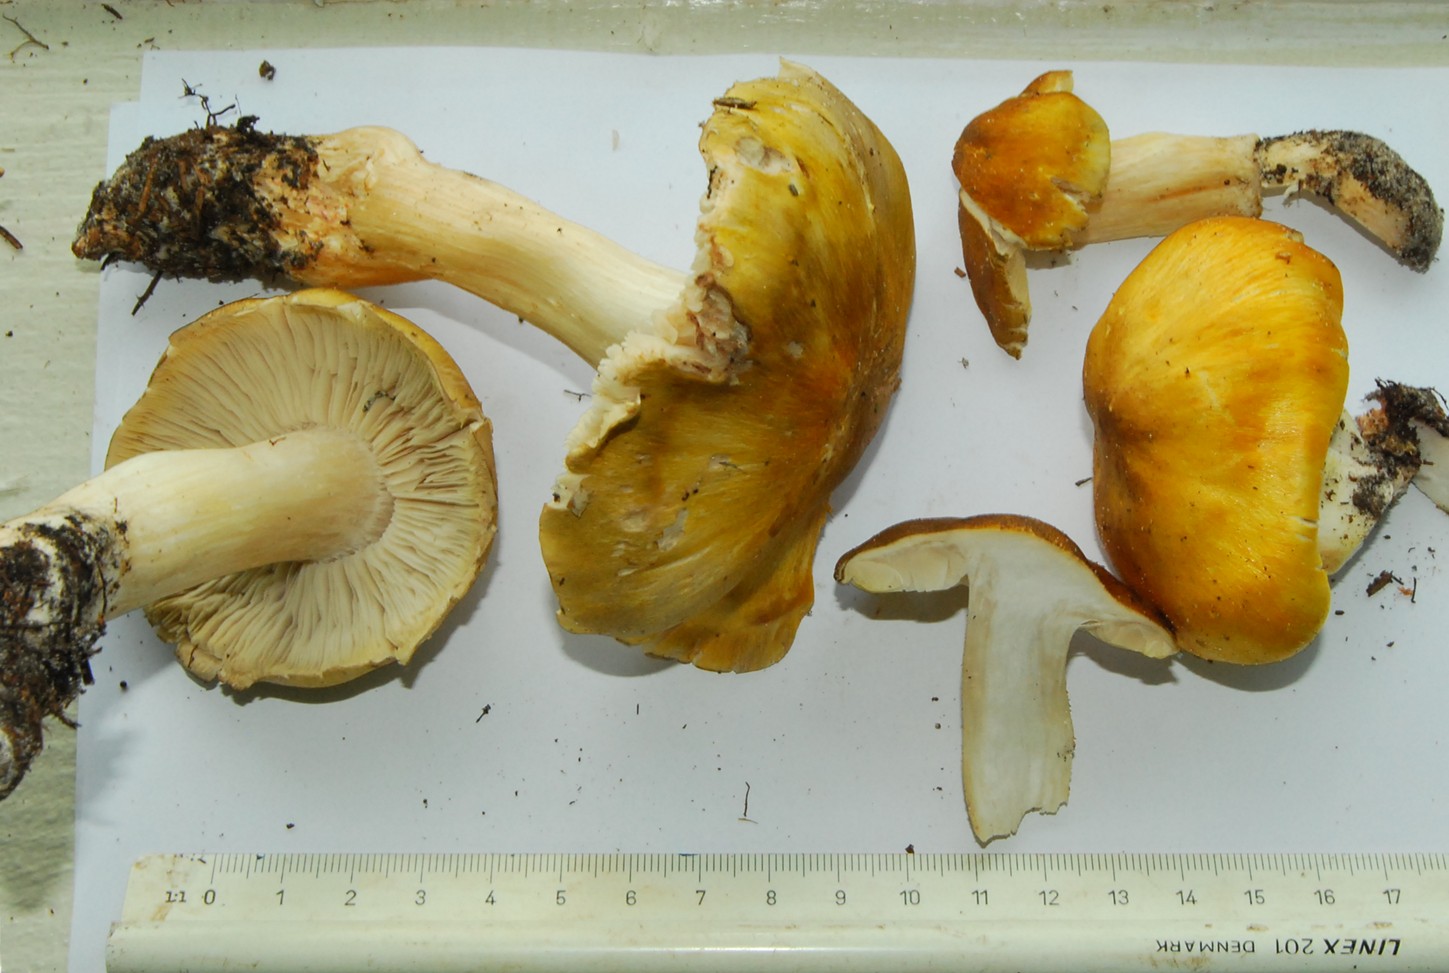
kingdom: Fungi
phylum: Basidiomycota
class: Agaricomycetes
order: Agaricales
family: Tricholomataceae
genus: Tricholoma
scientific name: Tricholoma arvernense
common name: kantet ridderhat
